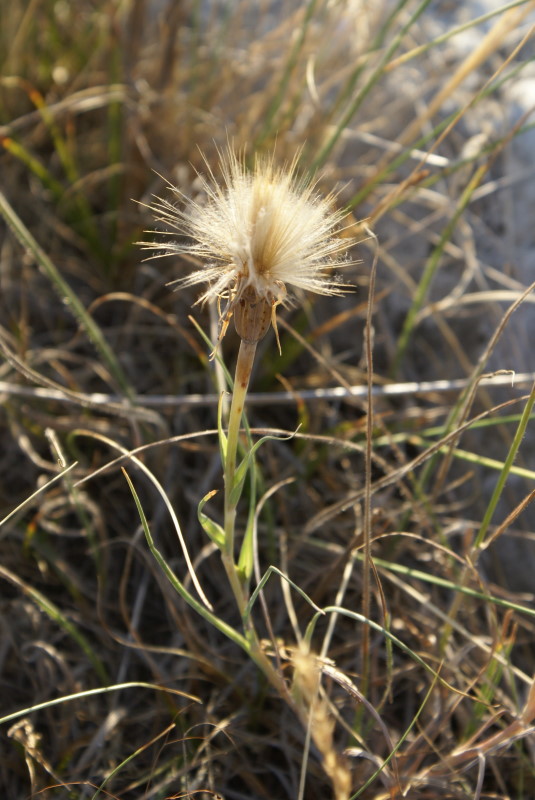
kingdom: Plantae
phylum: Tracheophyta
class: Magnoliopsida
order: Asterales
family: Asteraceae
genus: Scorzonera
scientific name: Scorzonera
